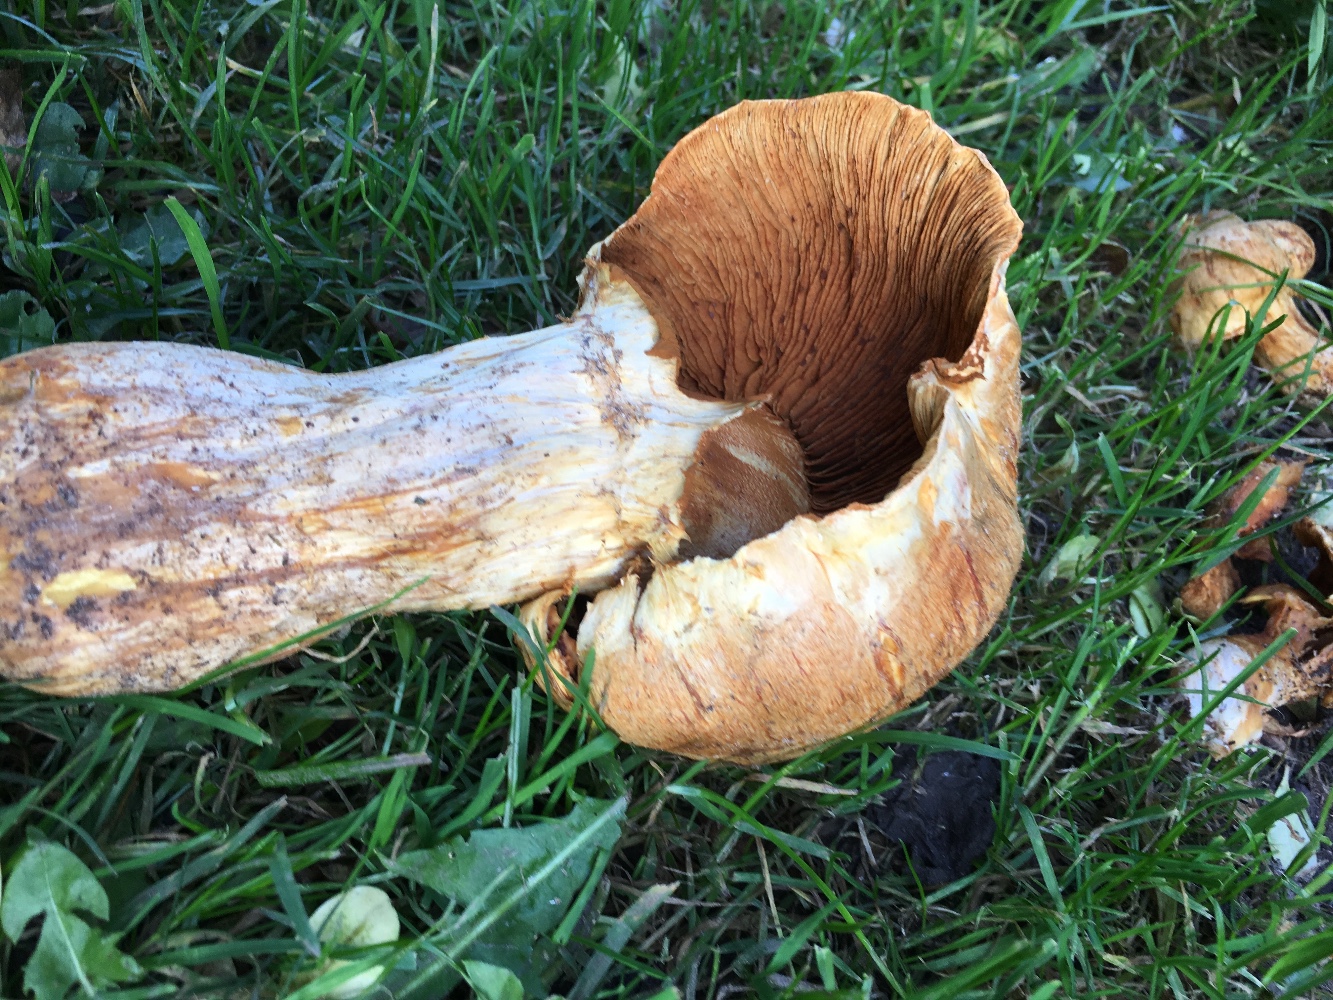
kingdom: Fungi
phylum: Basidiomycota
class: Agaricomycetes
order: Agaricales
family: Hymenogastraceae
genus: Gymnopilus
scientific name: Gymnopilus spectabilis
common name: fibret flammehat
